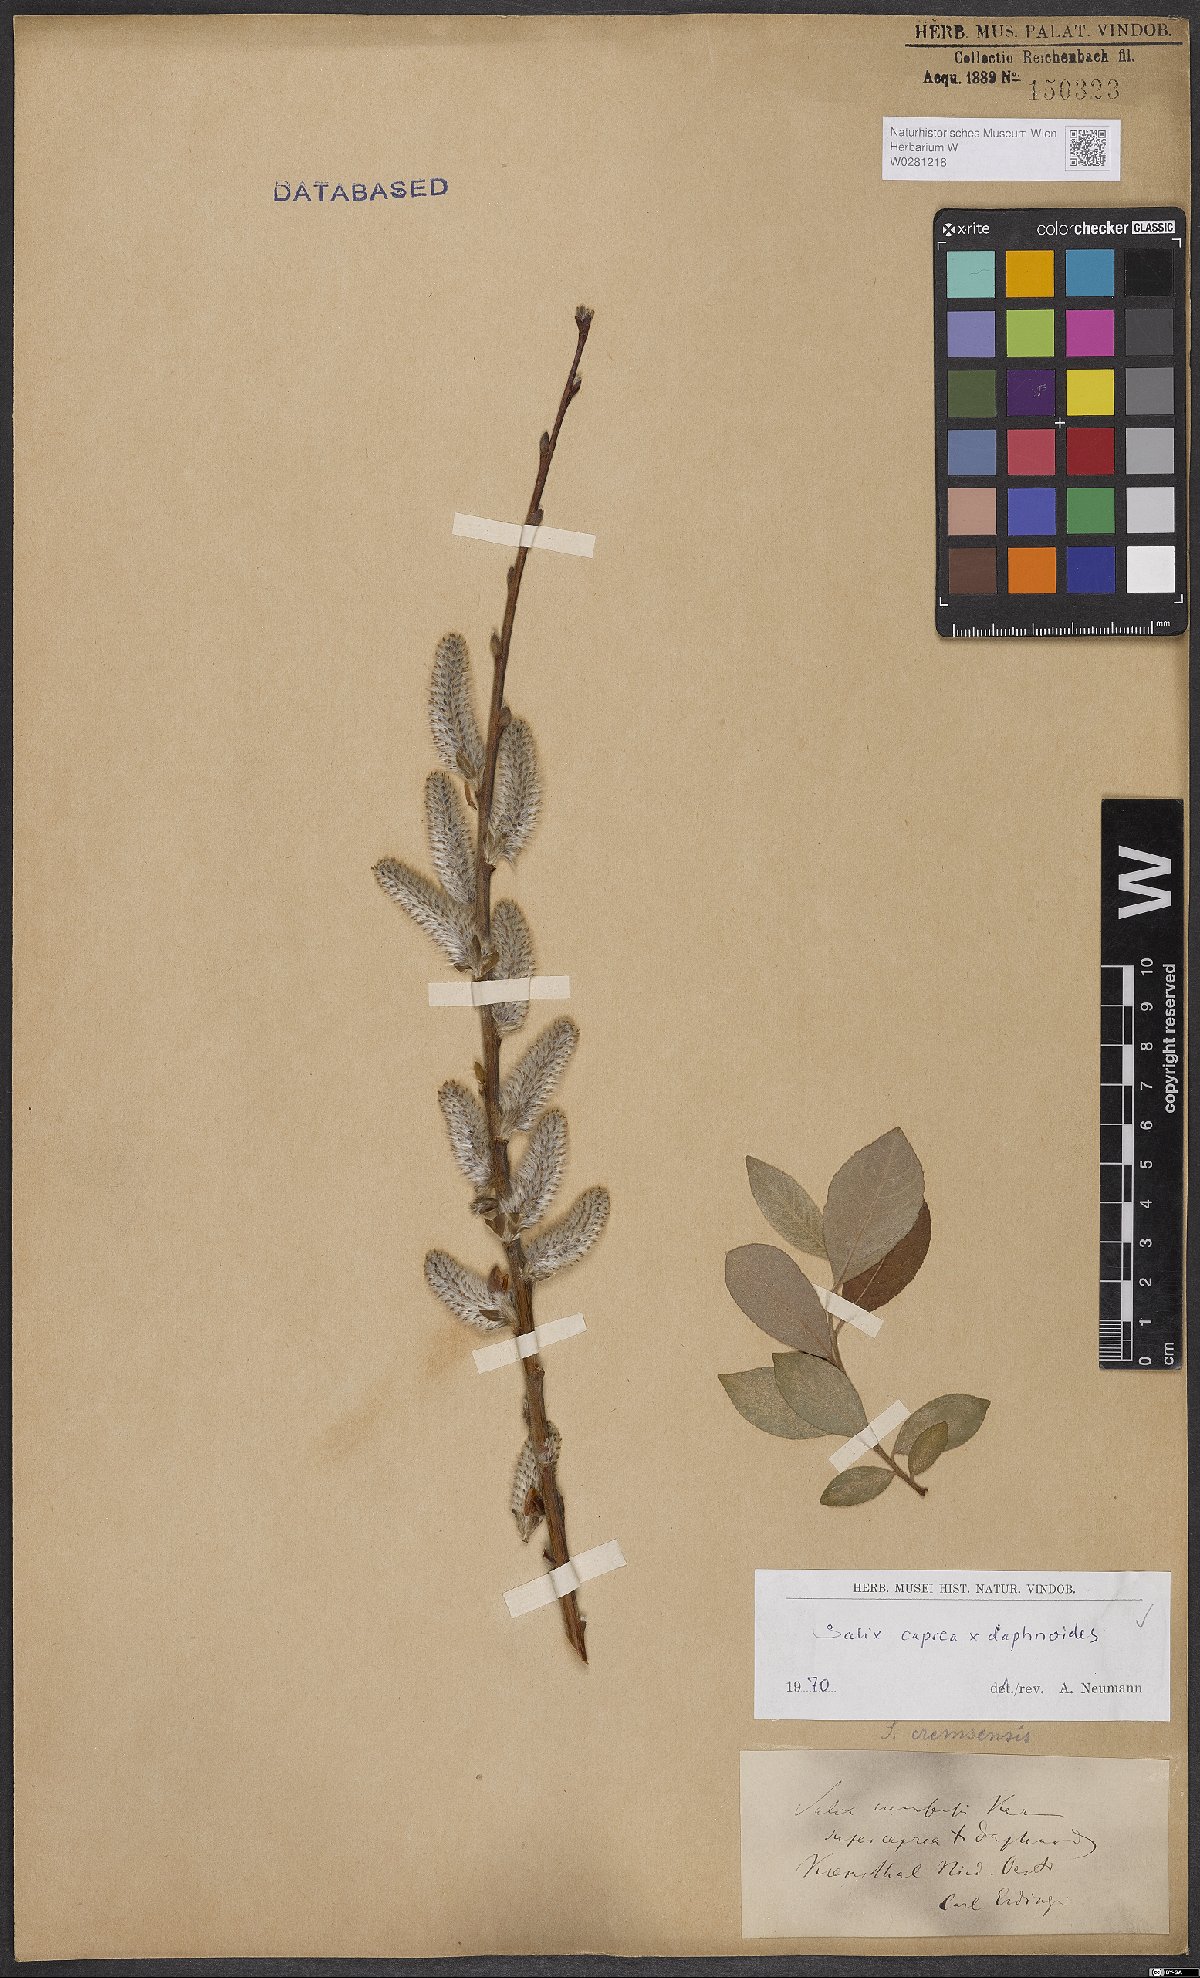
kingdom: Plantae
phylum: Tracheophyta
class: Magnoliopsida
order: Malpighiales
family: Salicaceae
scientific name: Salicaceae
